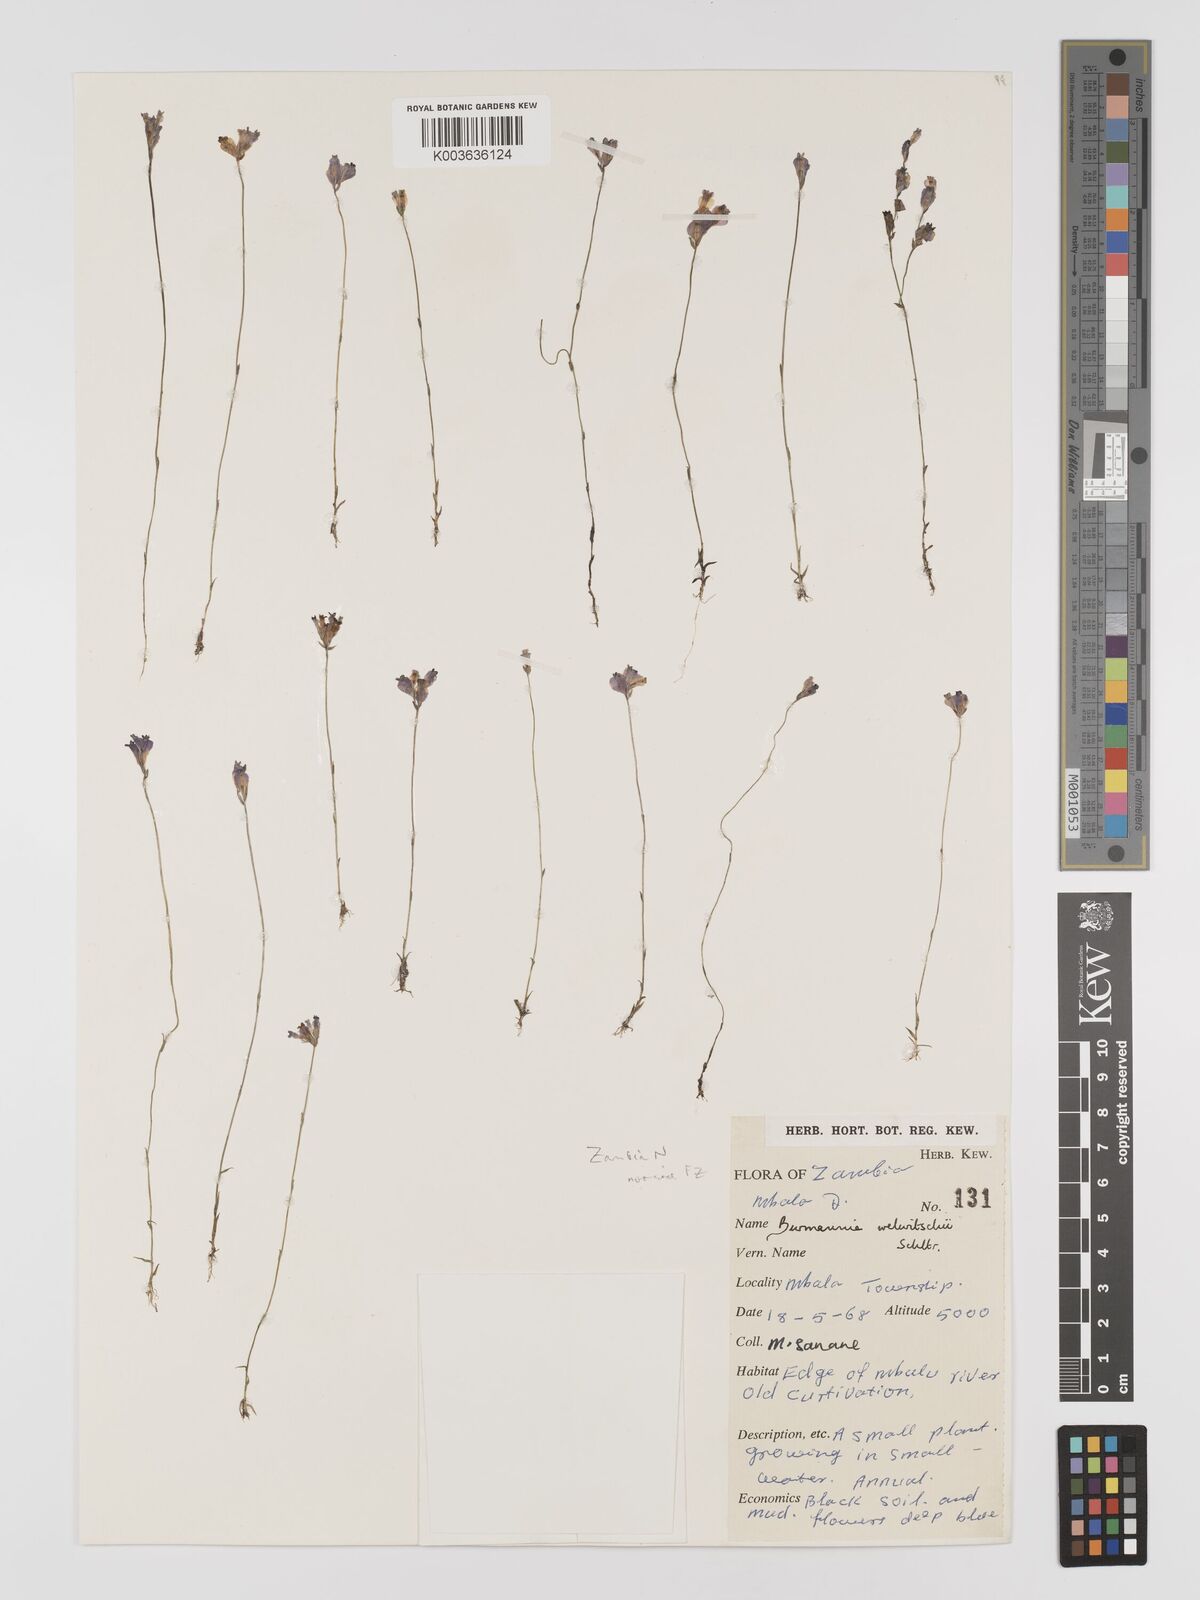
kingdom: Plantae
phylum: Tracheophyta
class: Liliopsida
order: Dioscoreales
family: Burmanniaceae
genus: Burmannia
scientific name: Burmannia madagascariensis
